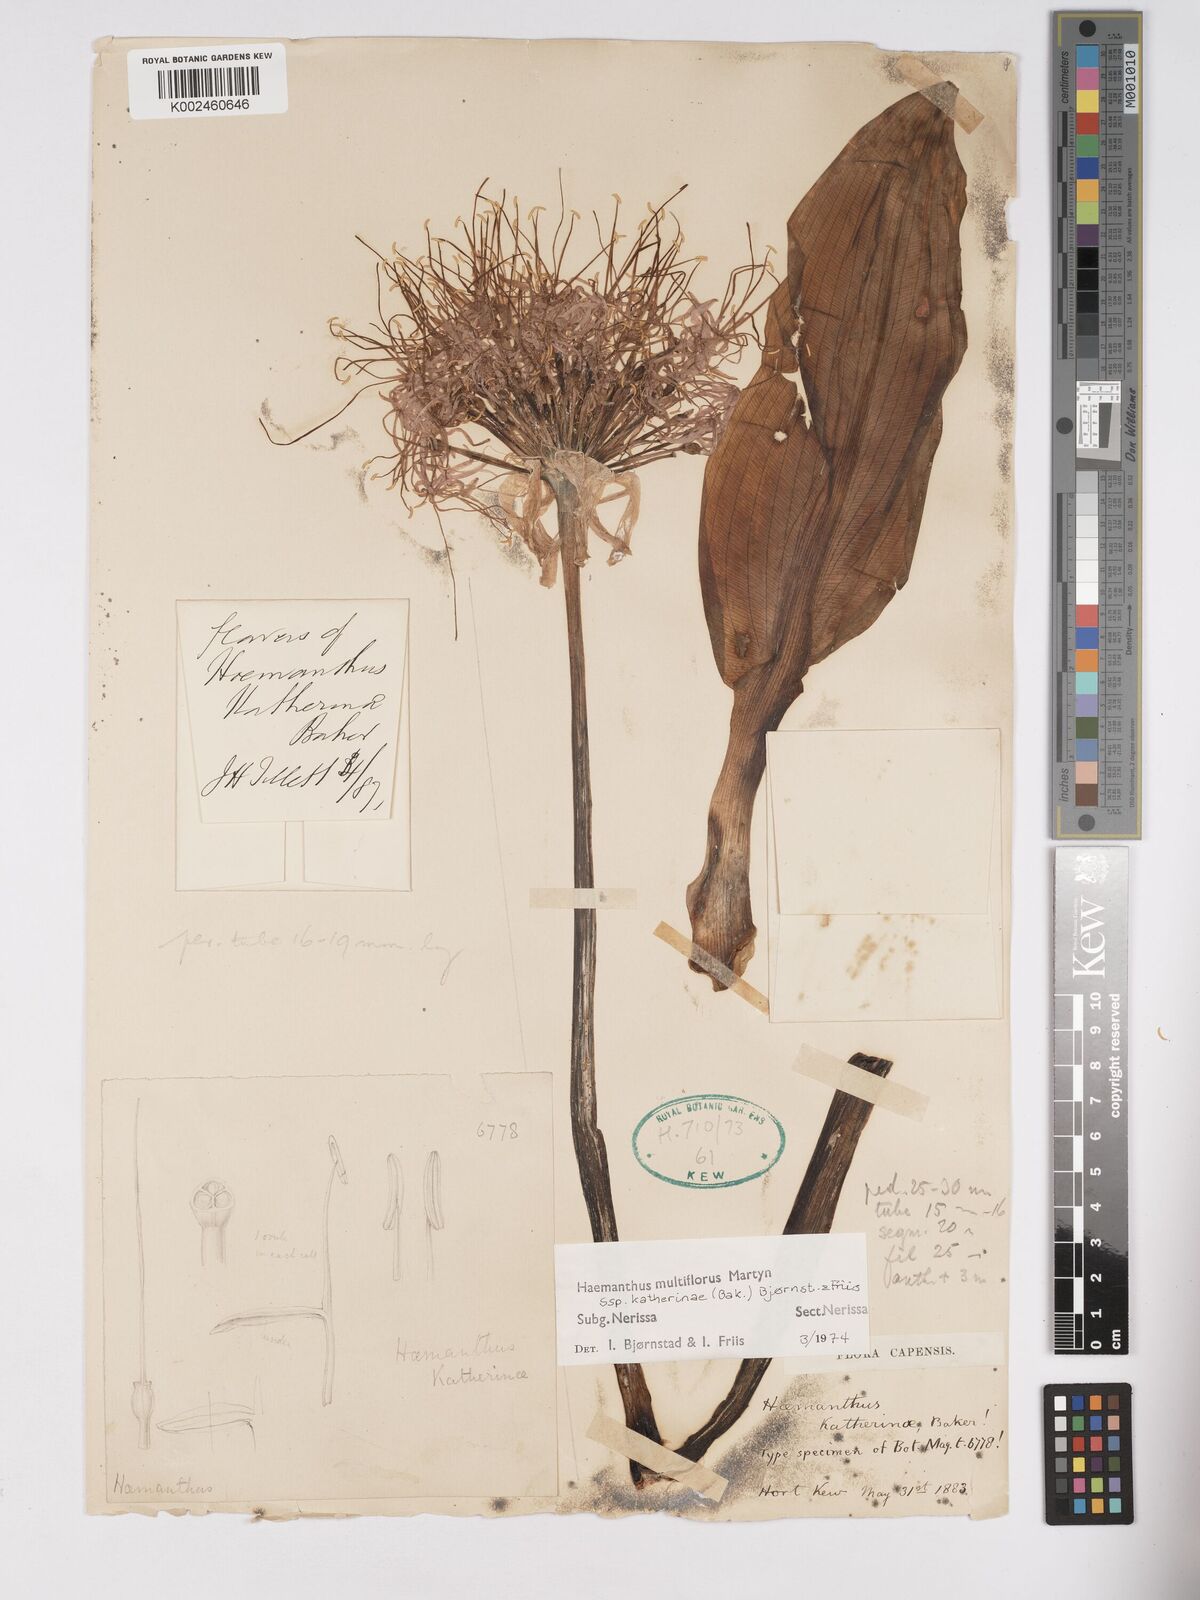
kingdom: Plantae
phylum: Tracheophyta
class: Liliopsida
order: Asparagales
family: Amaryllidaceae
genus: Haemanthus
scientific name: Haemanthus
